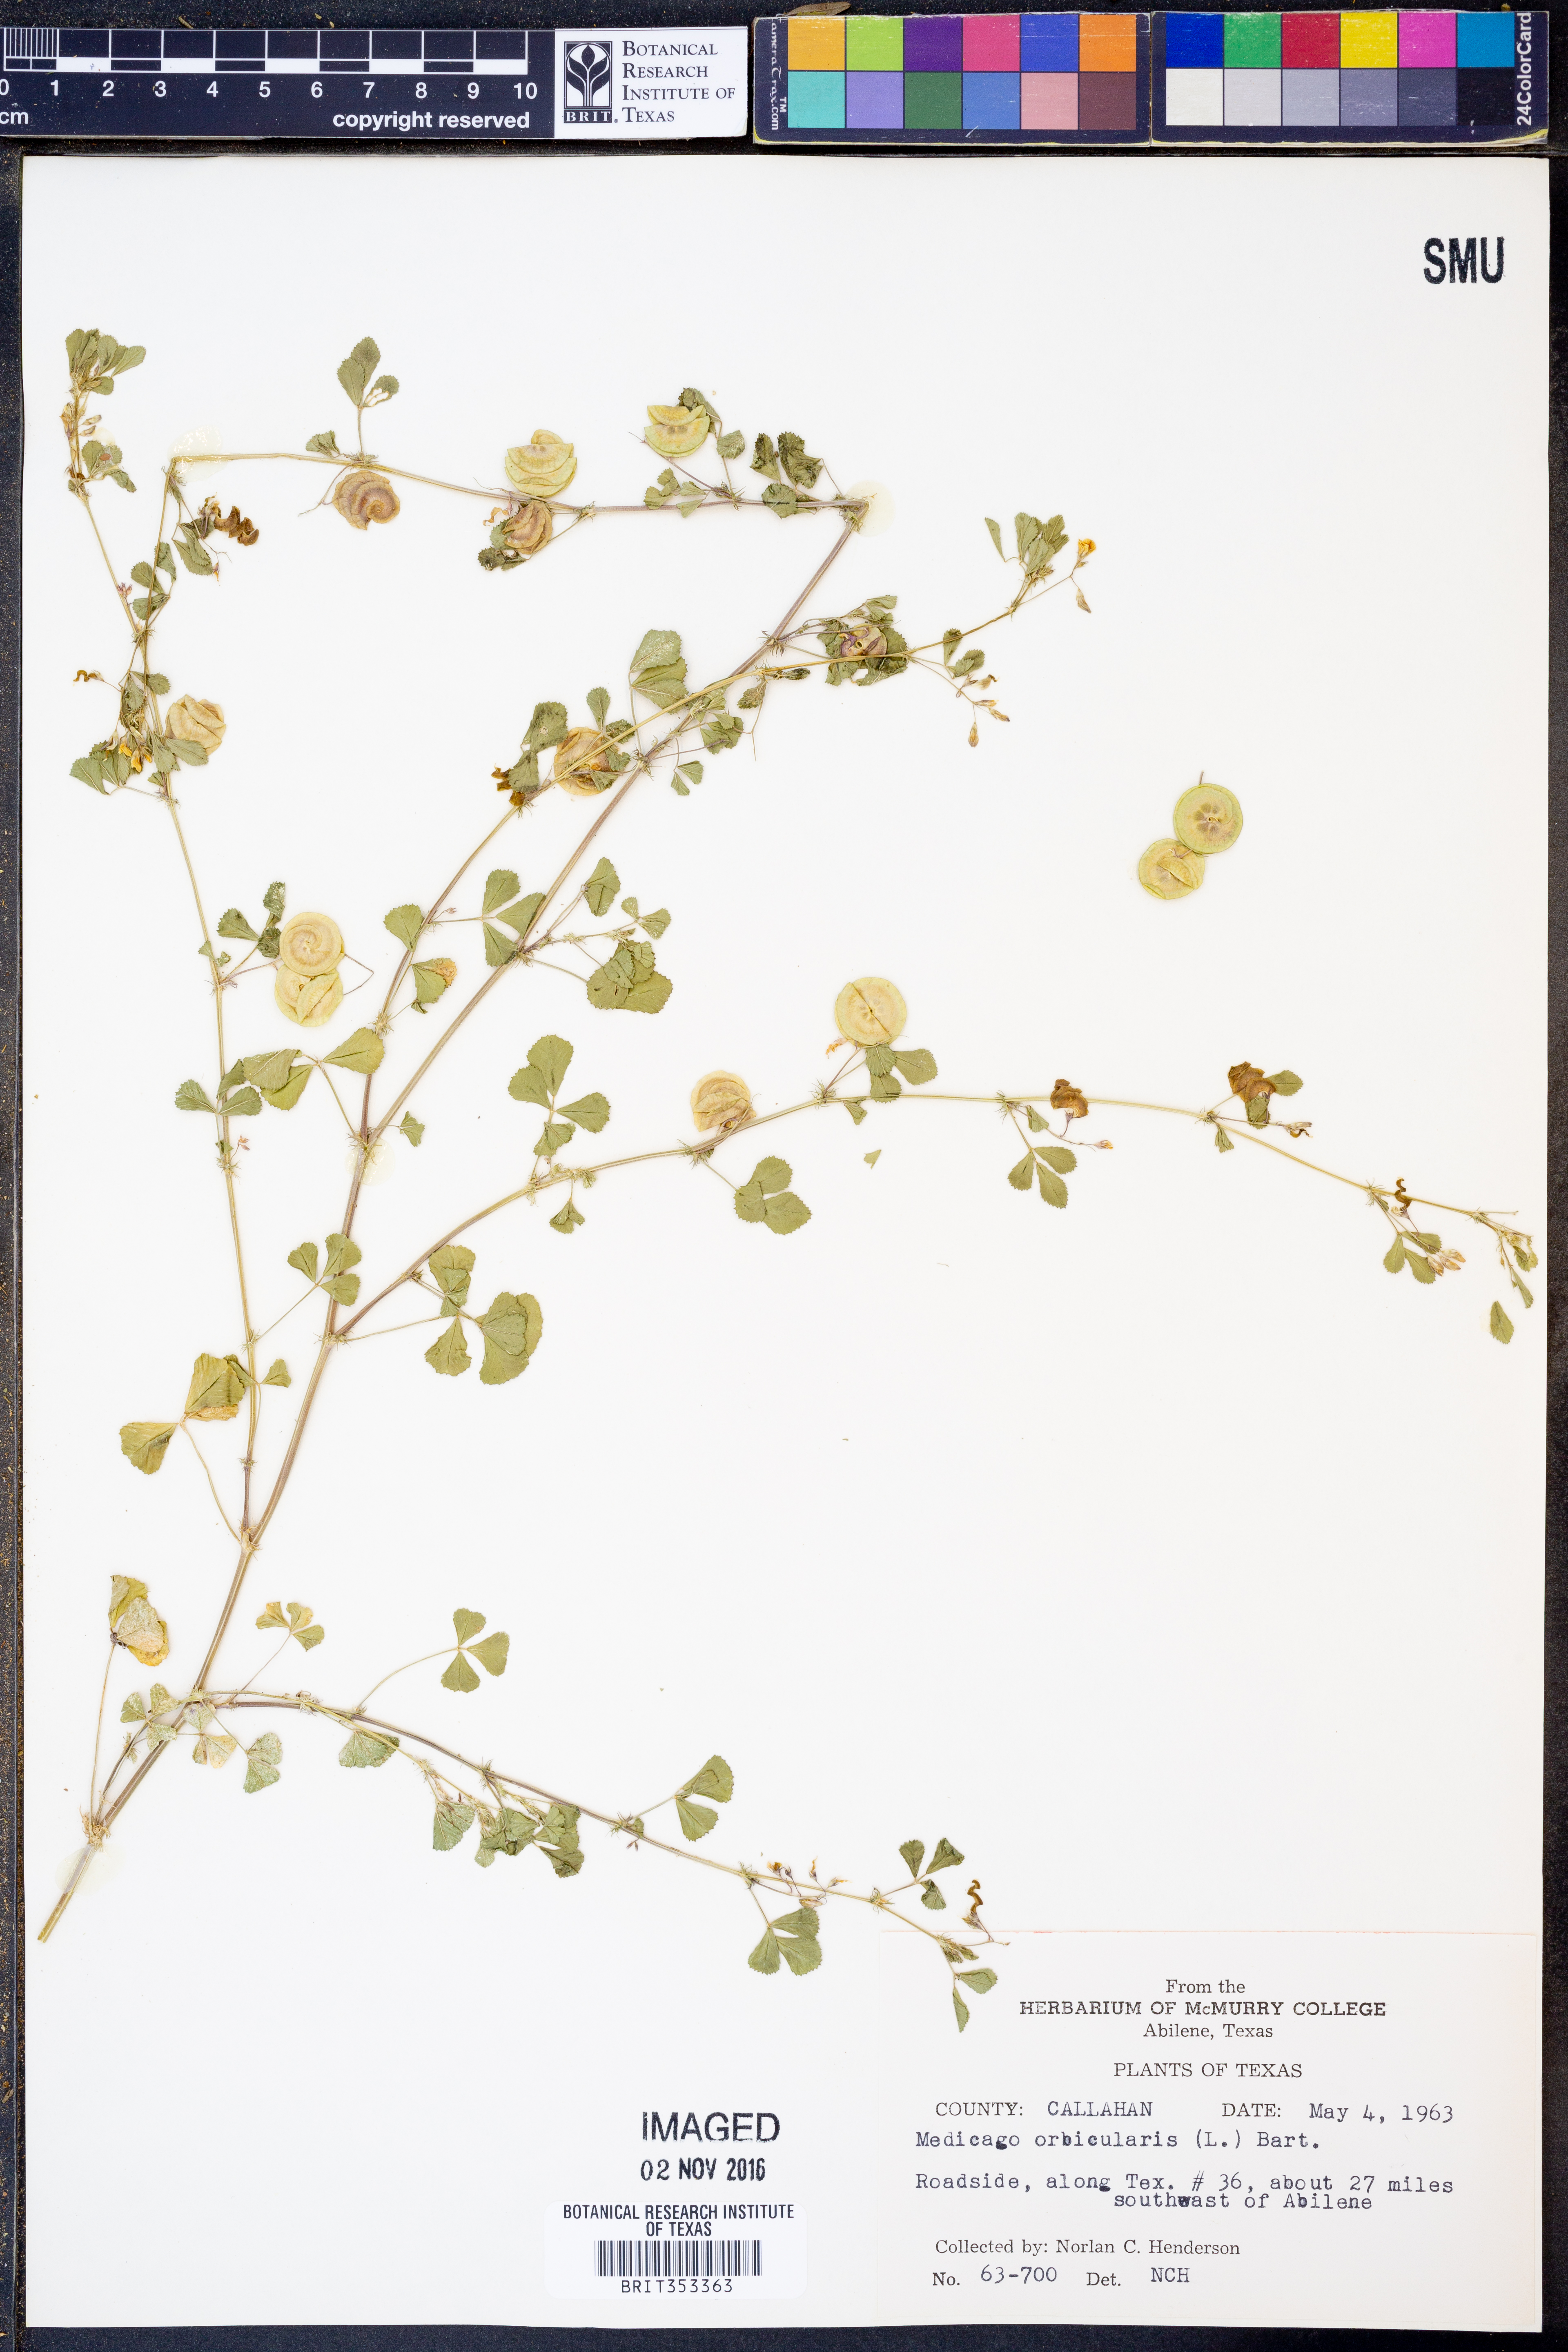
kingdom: Plantae
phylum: Tracheophyta
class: Magnoliopsida
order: Fabales
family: Fabaceae
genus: Medicago
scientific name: Medicago orbicularis
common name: Button medick
